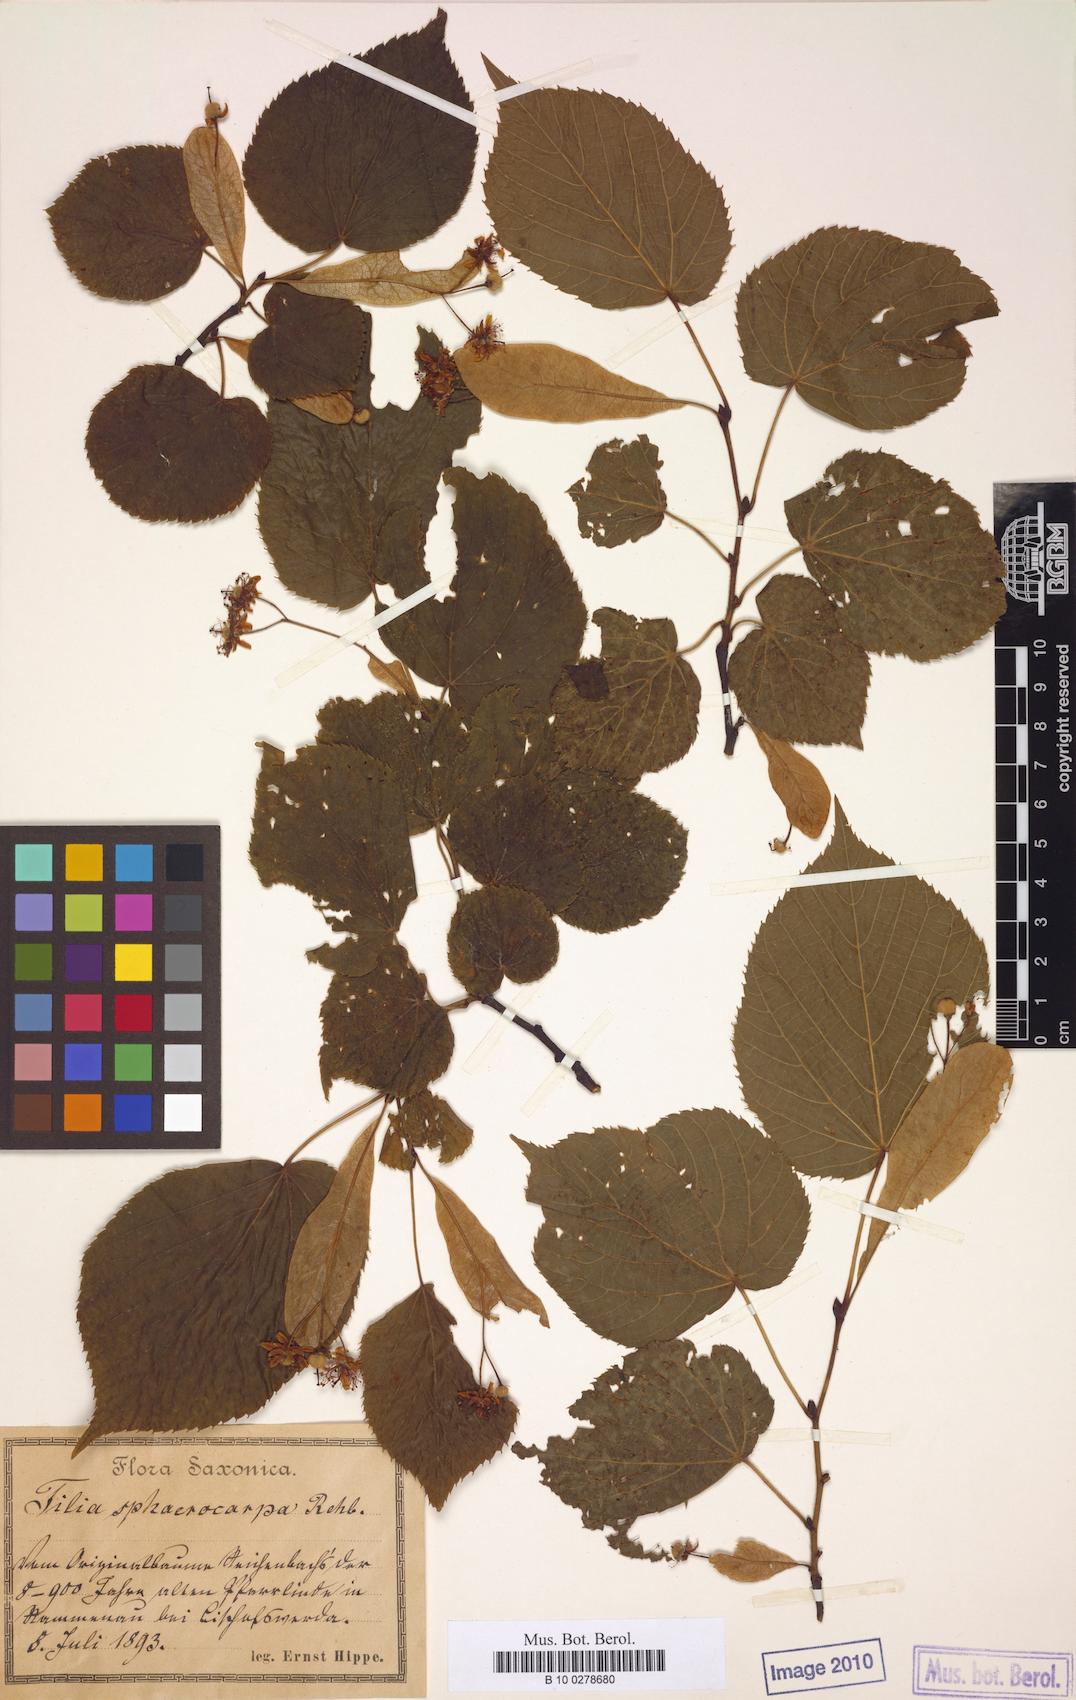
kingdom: Plantae
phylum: Tracheophyta
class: Magnoliopsida
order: Malvales
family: Malvaceae
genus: Tilia
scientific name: Tilia platyphyllos
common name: Large-leaved lime
